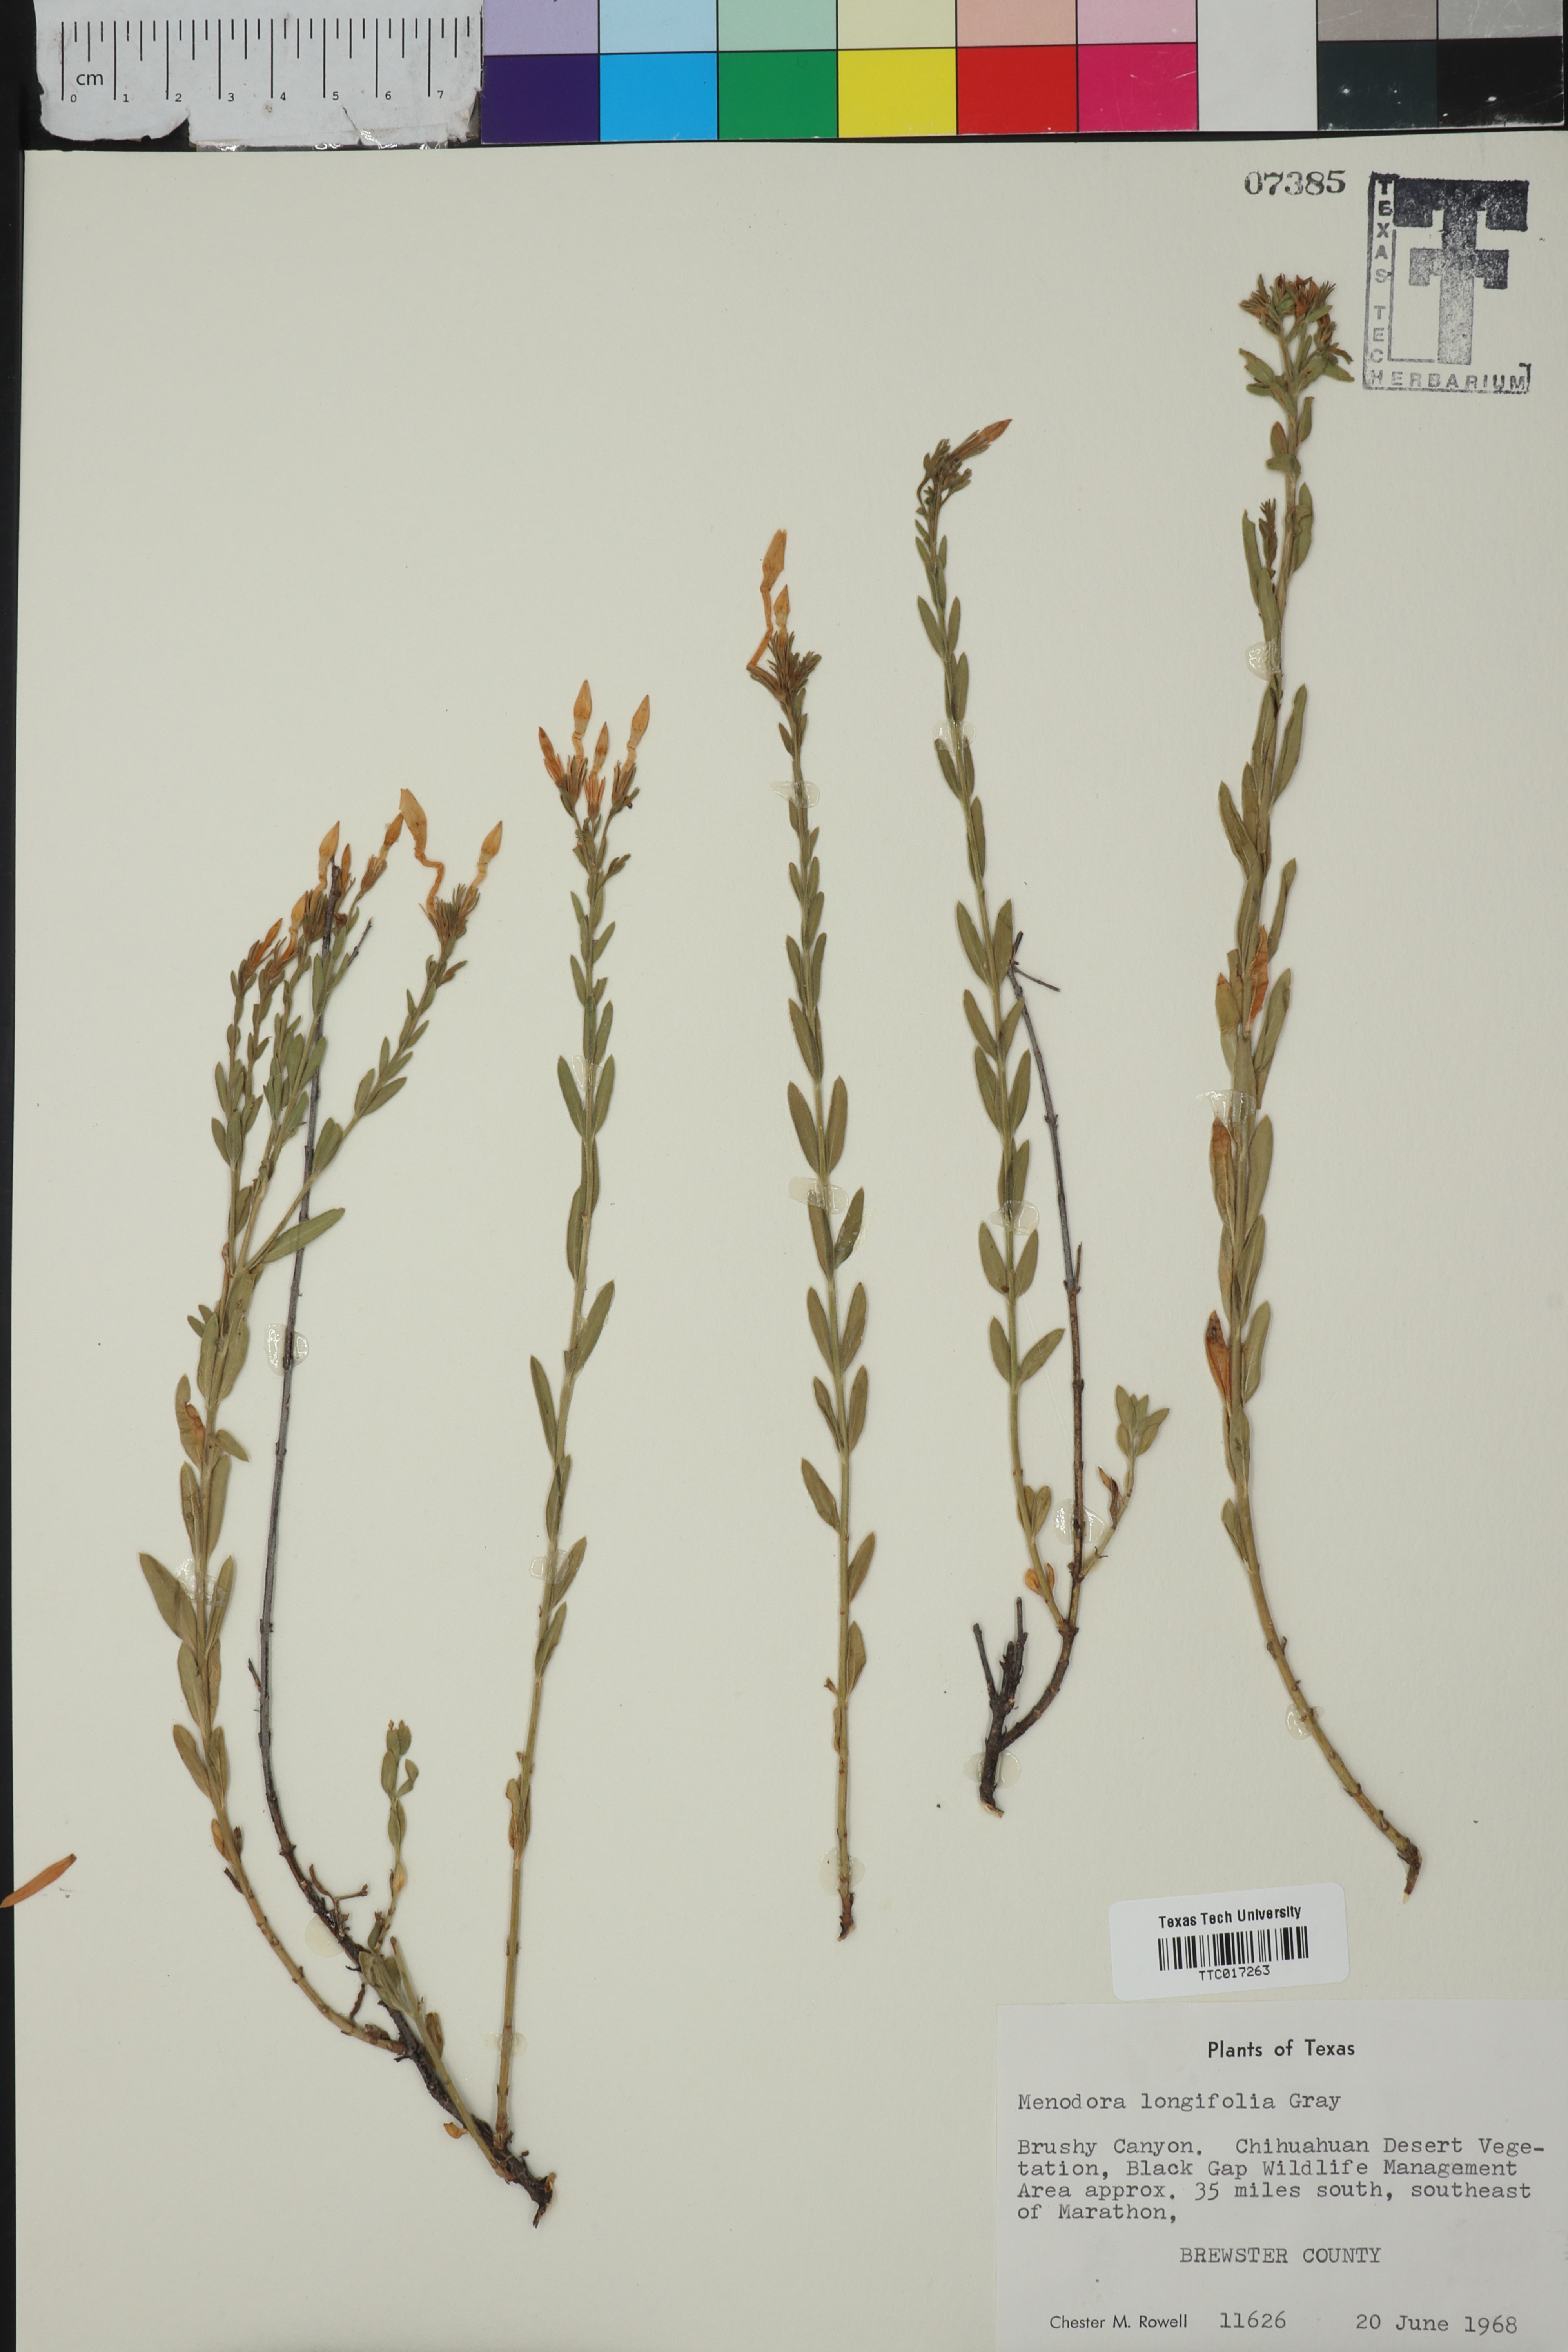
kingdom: Plantae
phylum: Tracheophyta
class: Magnoliopsida
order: Lamiales
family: Oleaceae
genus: Menodora
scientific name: Menodora longiflora
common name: Showy menodora
